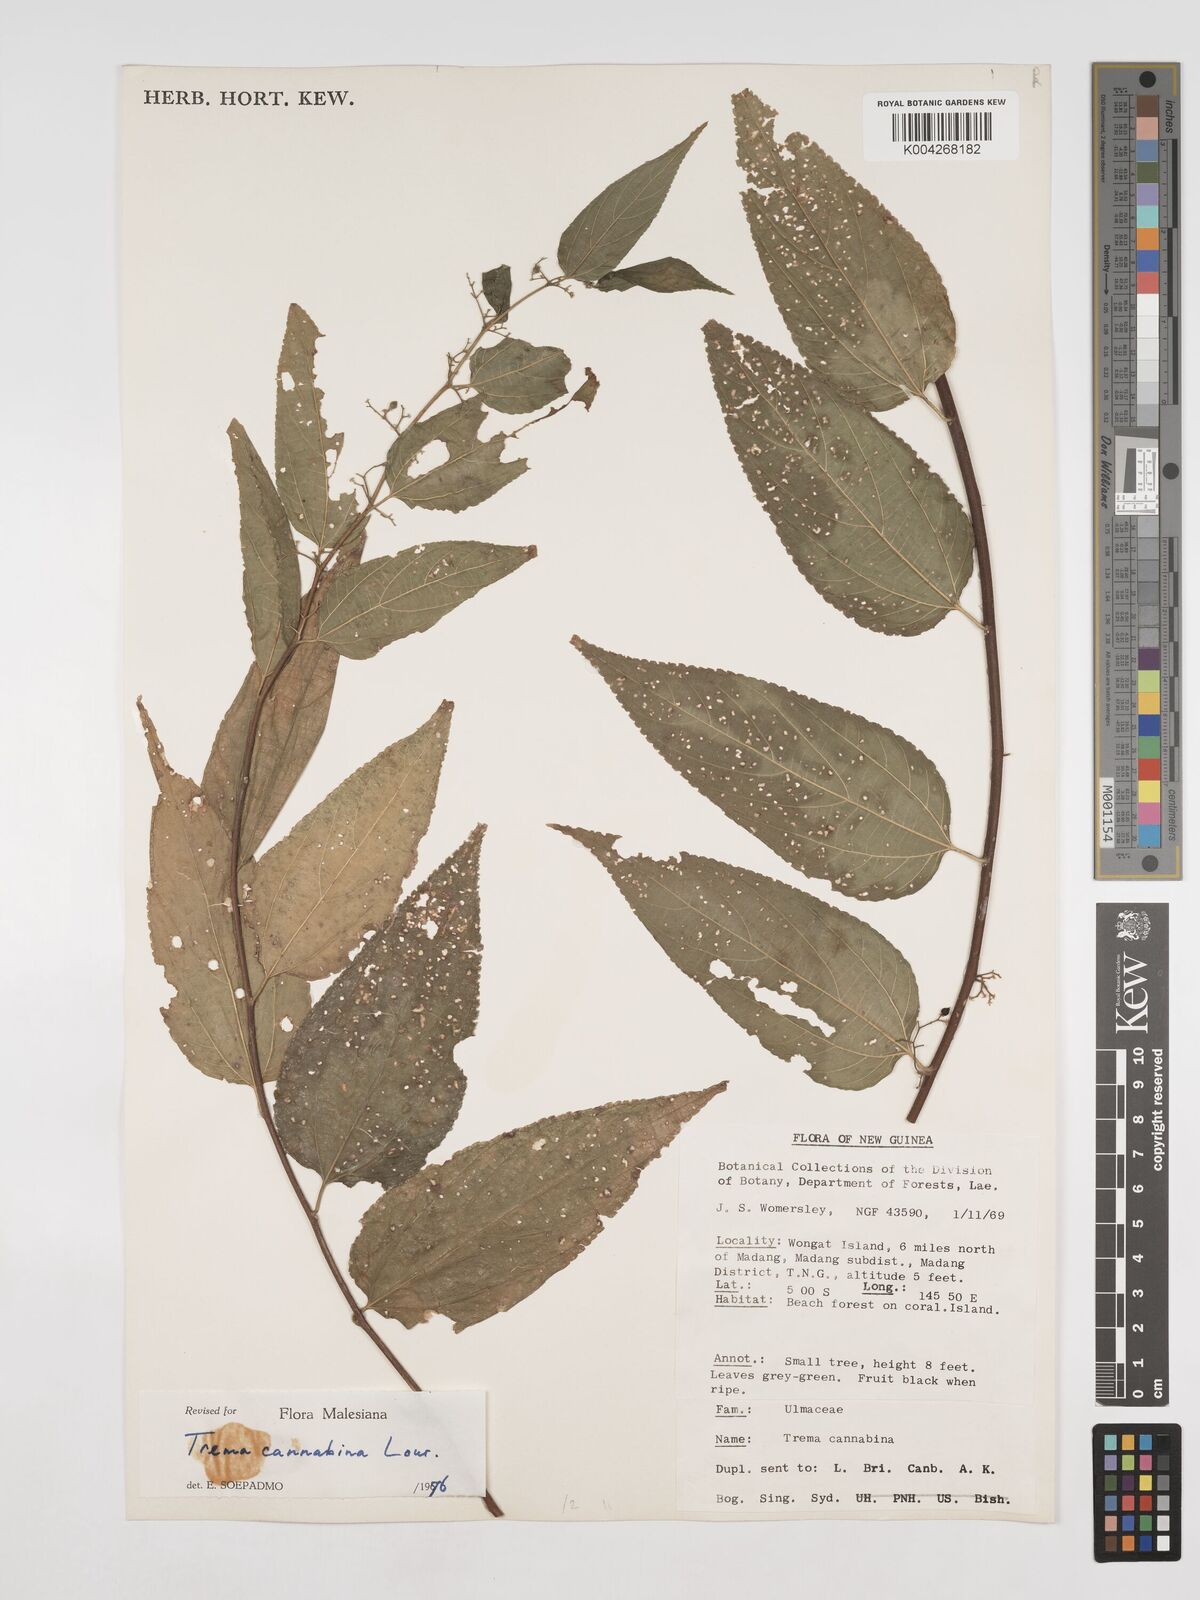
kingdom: Plantae
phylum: Tracheophyta
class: Magnoliopsida
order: Rosales
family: Cannabaceae
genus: Trema
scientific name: Trema
